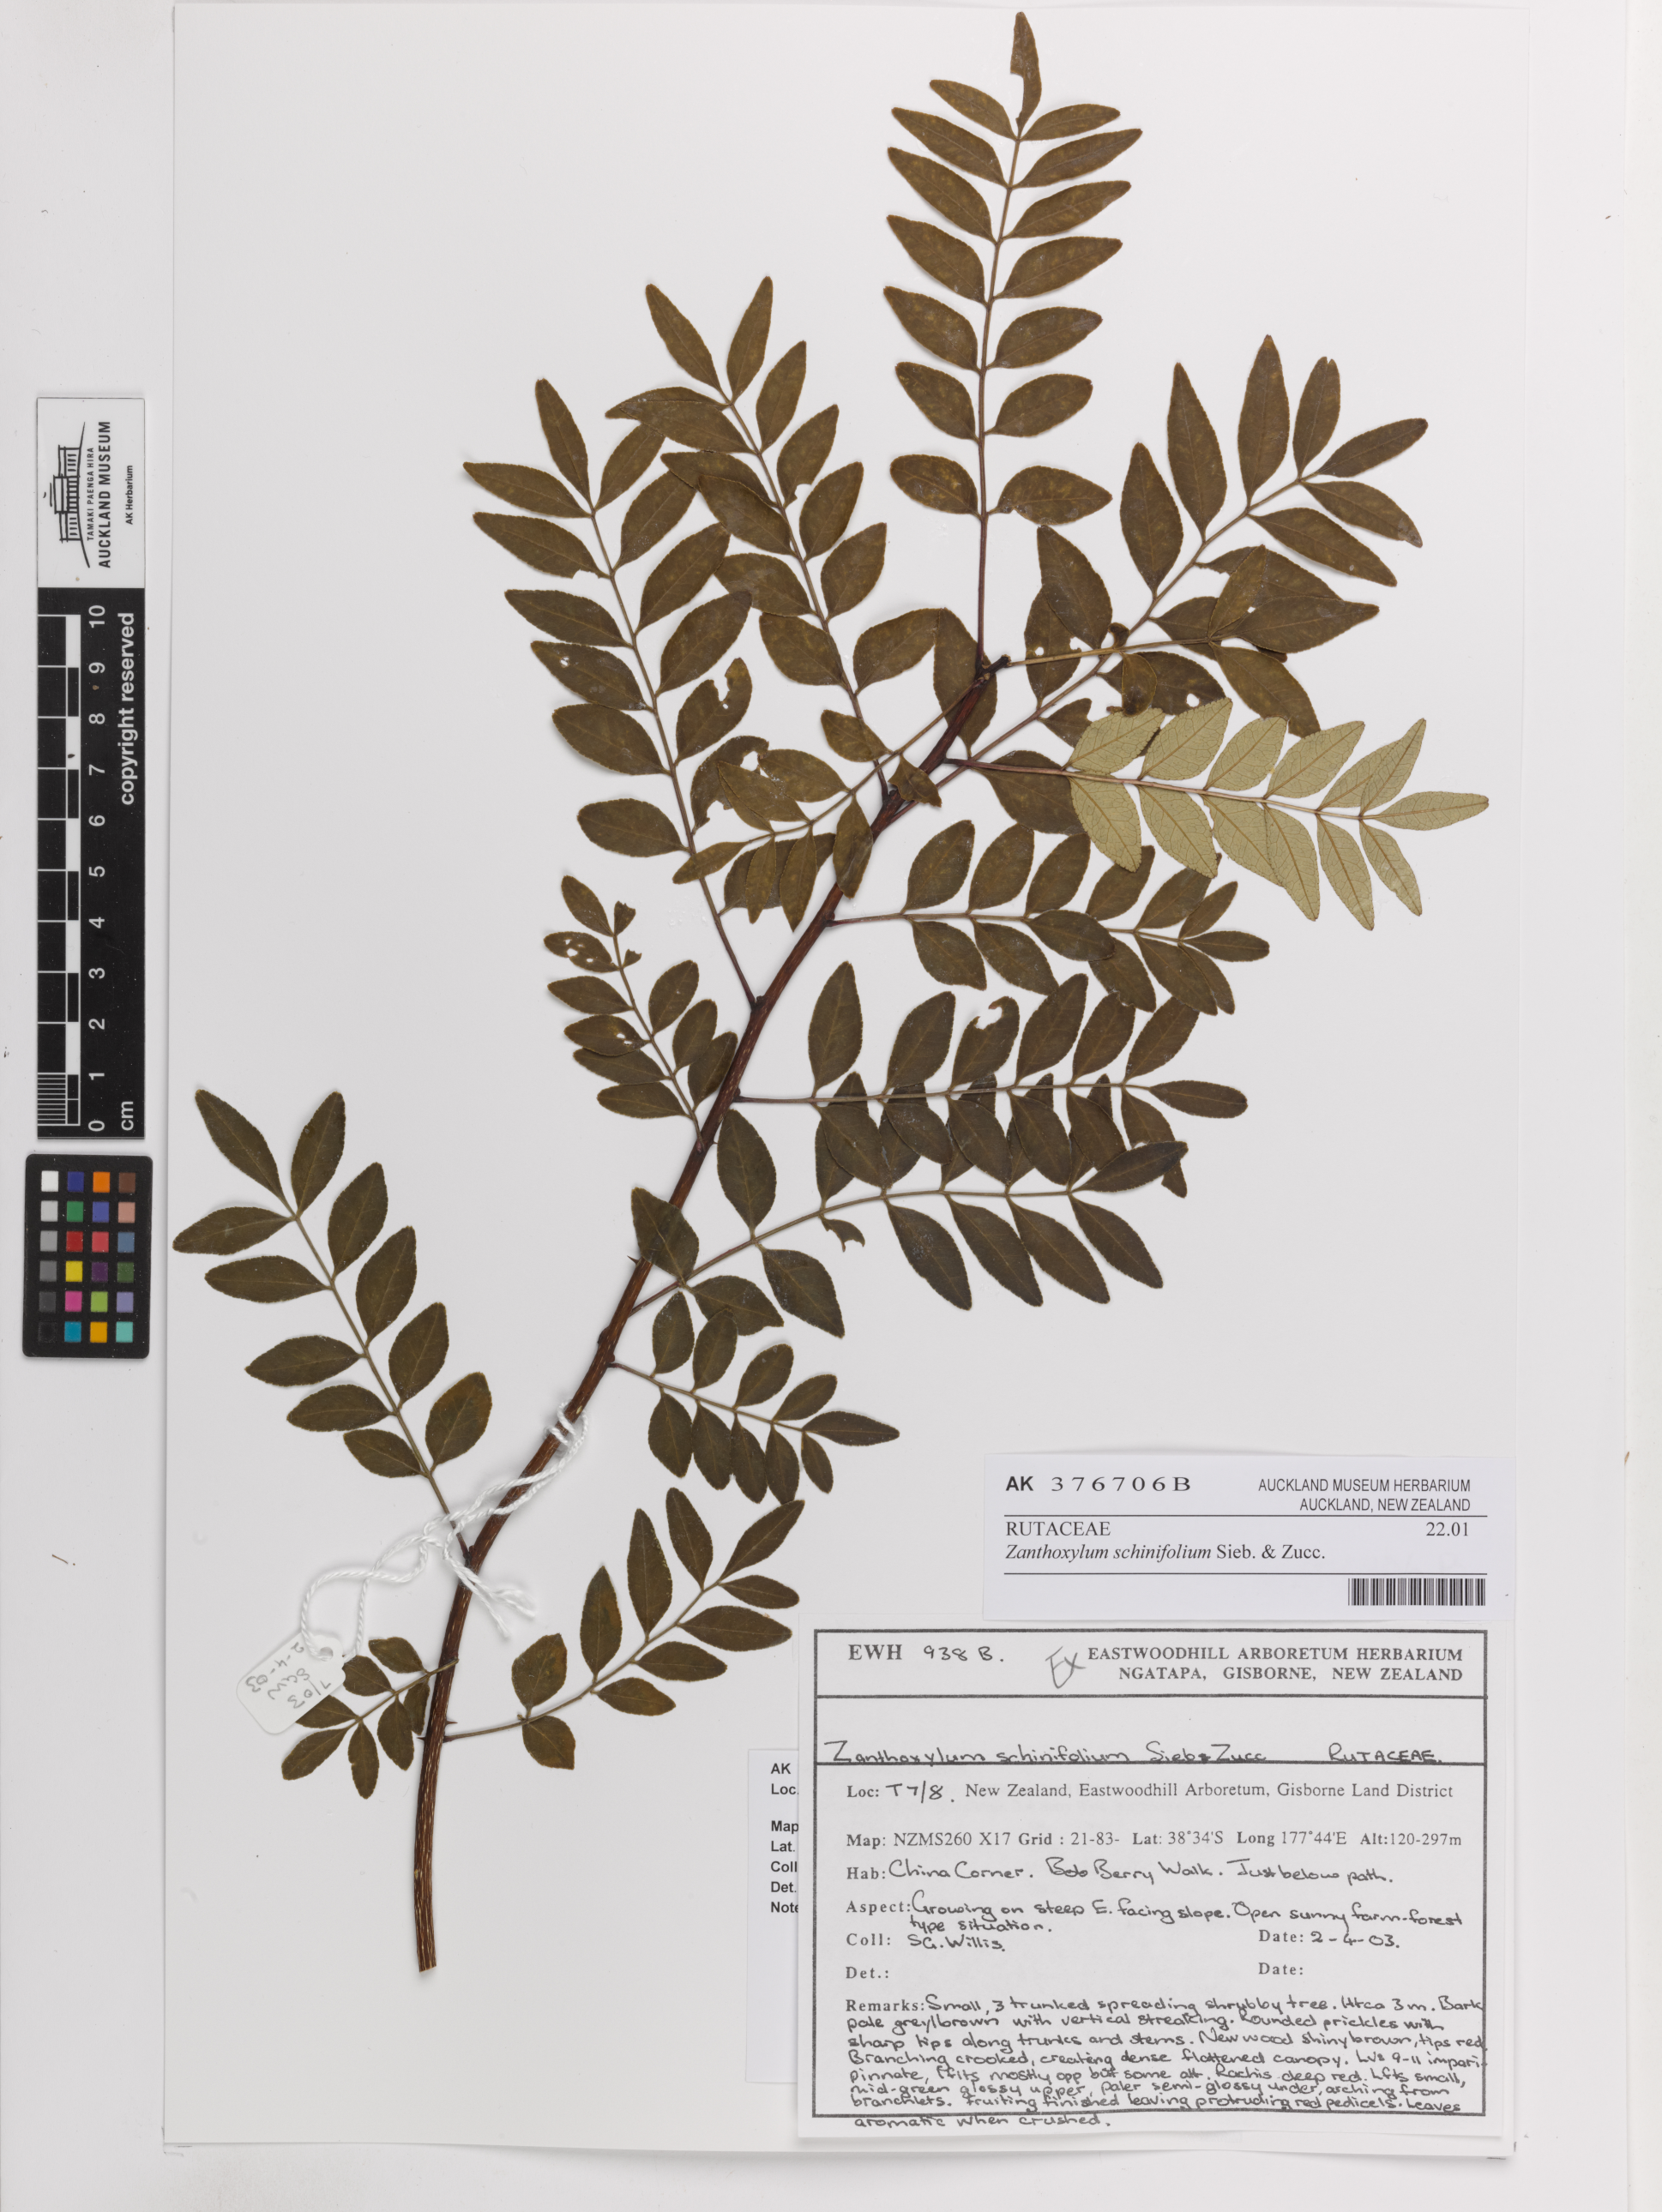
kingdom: Plantae
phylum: Tracheophyta
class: Magnoliopsida
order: Sapindales
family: Rutaceae
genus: Zanthoxylum
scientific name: Zanthoxylum schinifolium
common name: Sichuan-pepper
